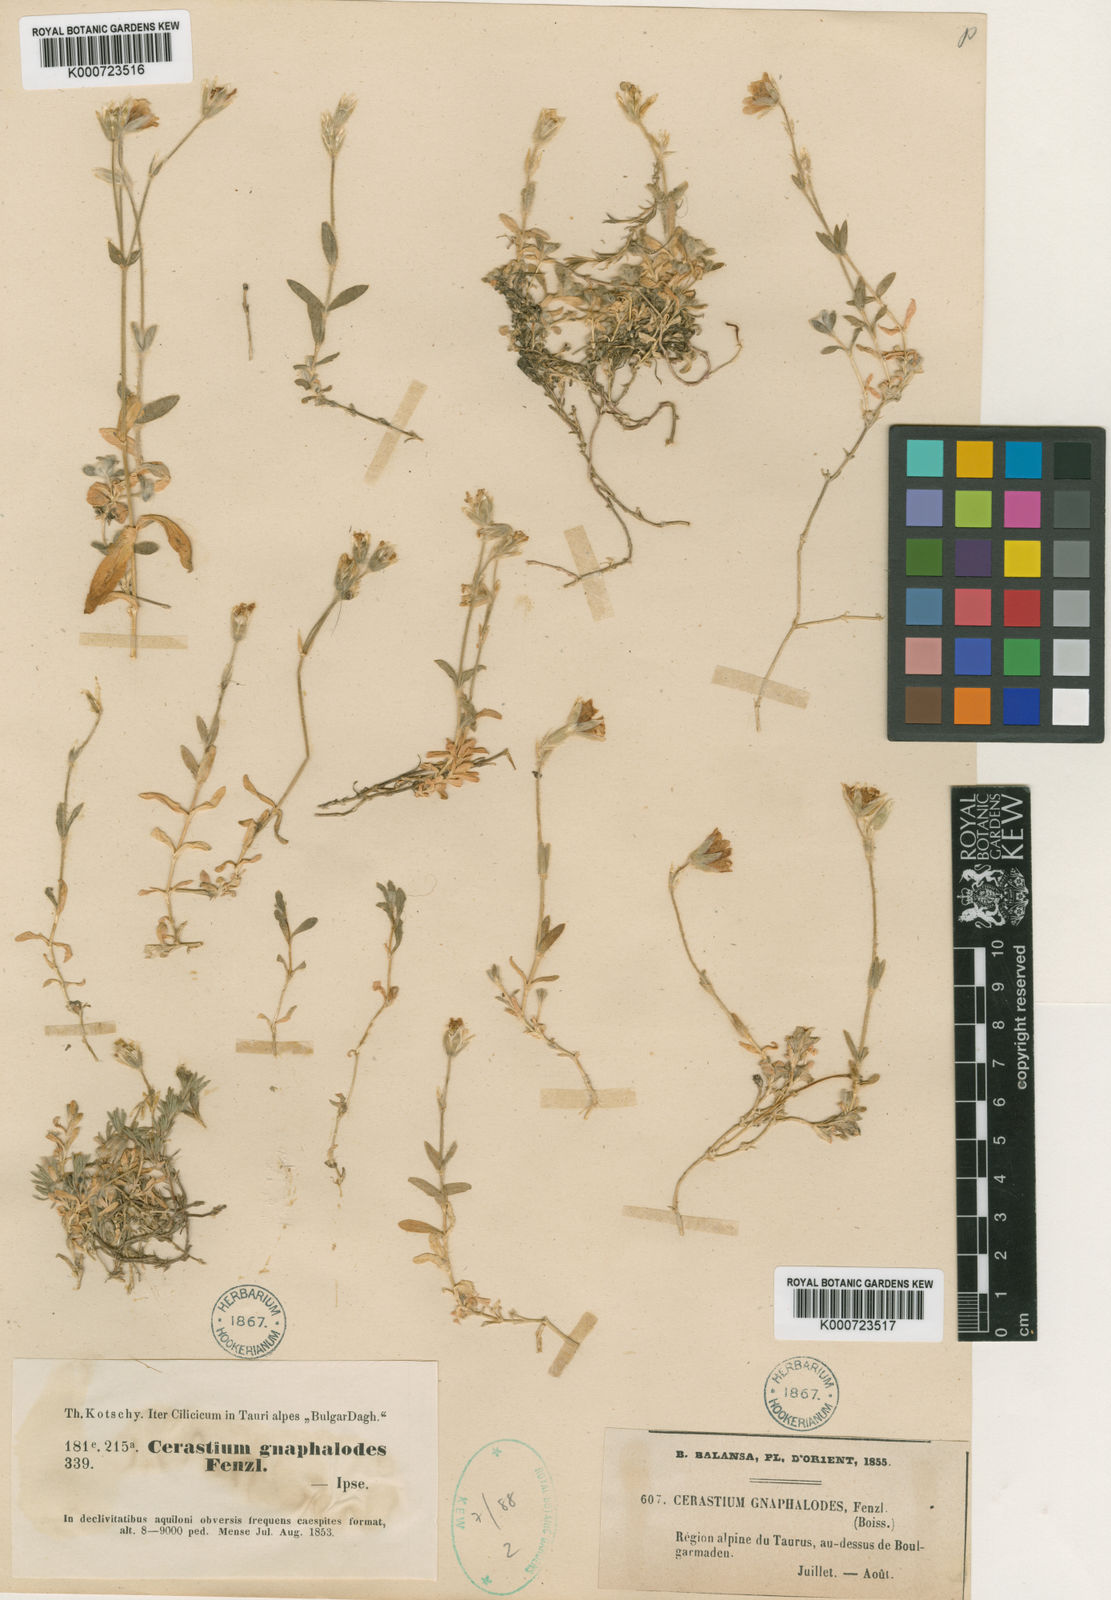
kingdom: Plantae
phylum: Tracheophyta
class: Magnoliopsida
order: Caryophyllales
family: Caryophyllaceae
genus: Cerastium
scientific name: Cerastium gnaphalodes
